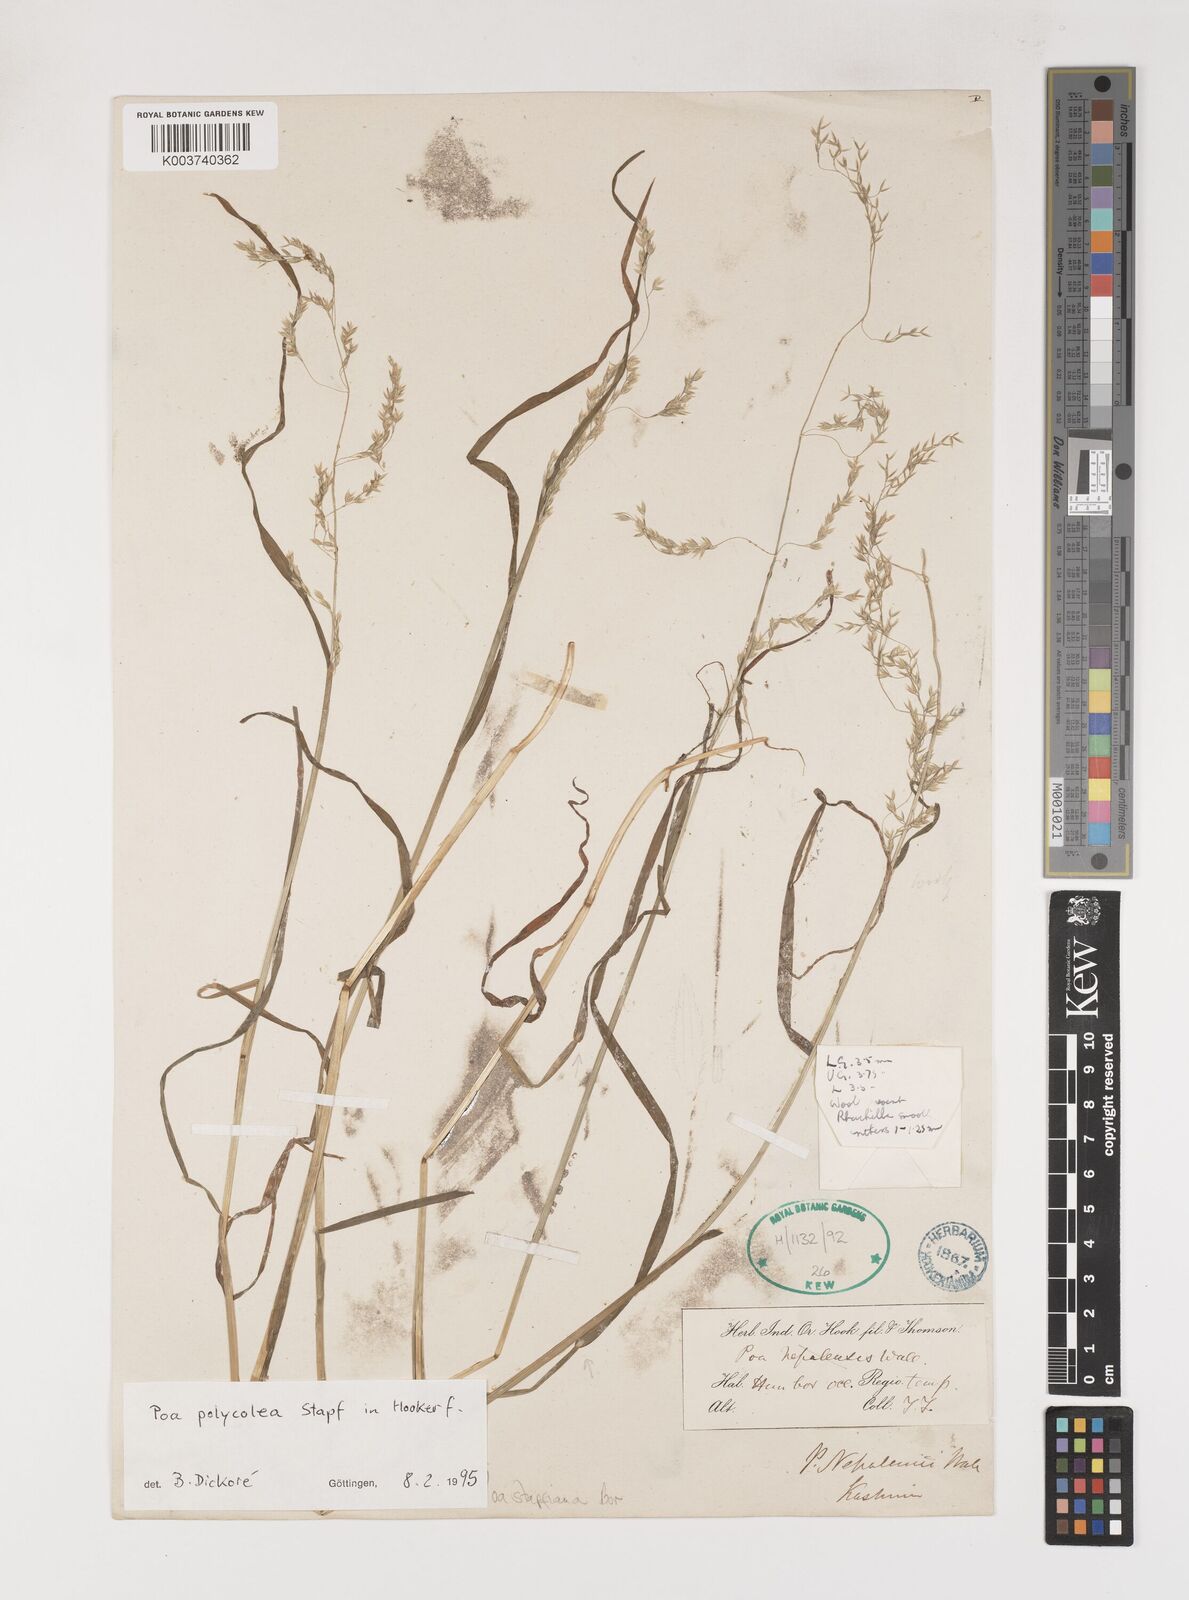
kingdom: Plantae
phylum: Tracheophyta
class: Liliopsida
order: Poales
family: Poaceae
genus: Poa
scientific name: Poa stapfiana
